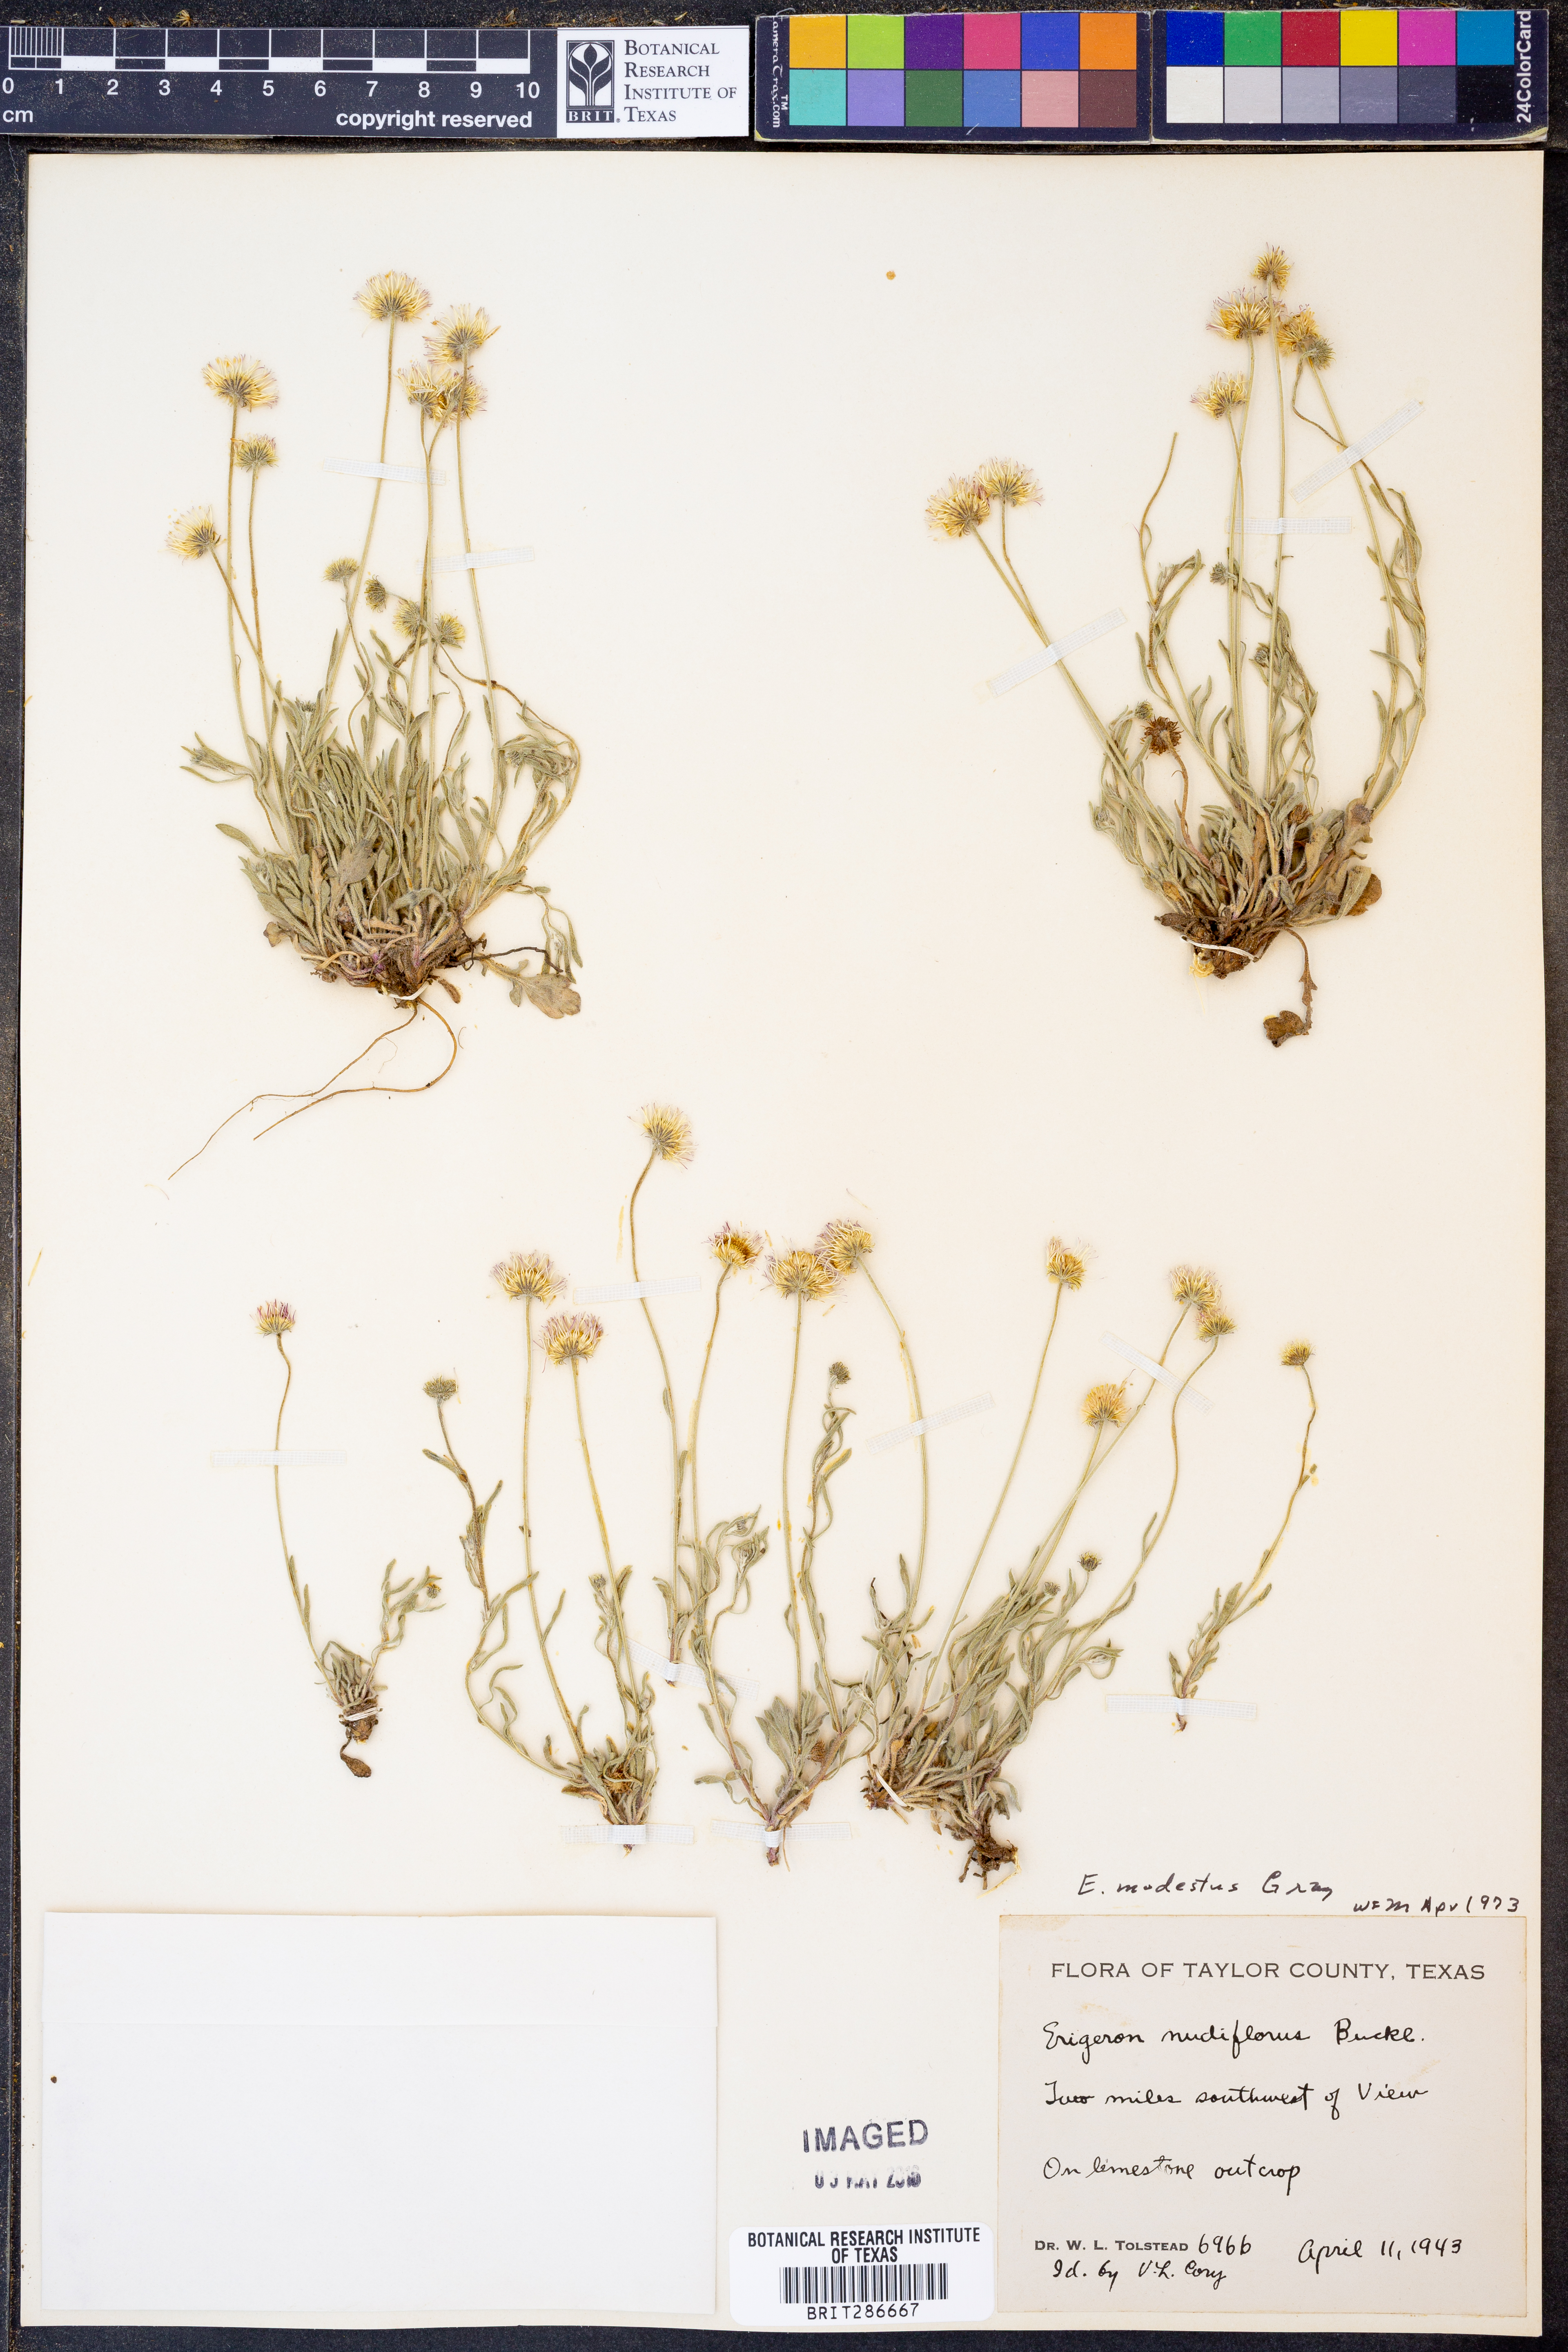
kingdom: Plantae
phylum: Tracheophyta
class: Magnoliopsida
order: Asterales
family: Asteraceae
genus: Erigeron
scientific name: Erigeron modestus
